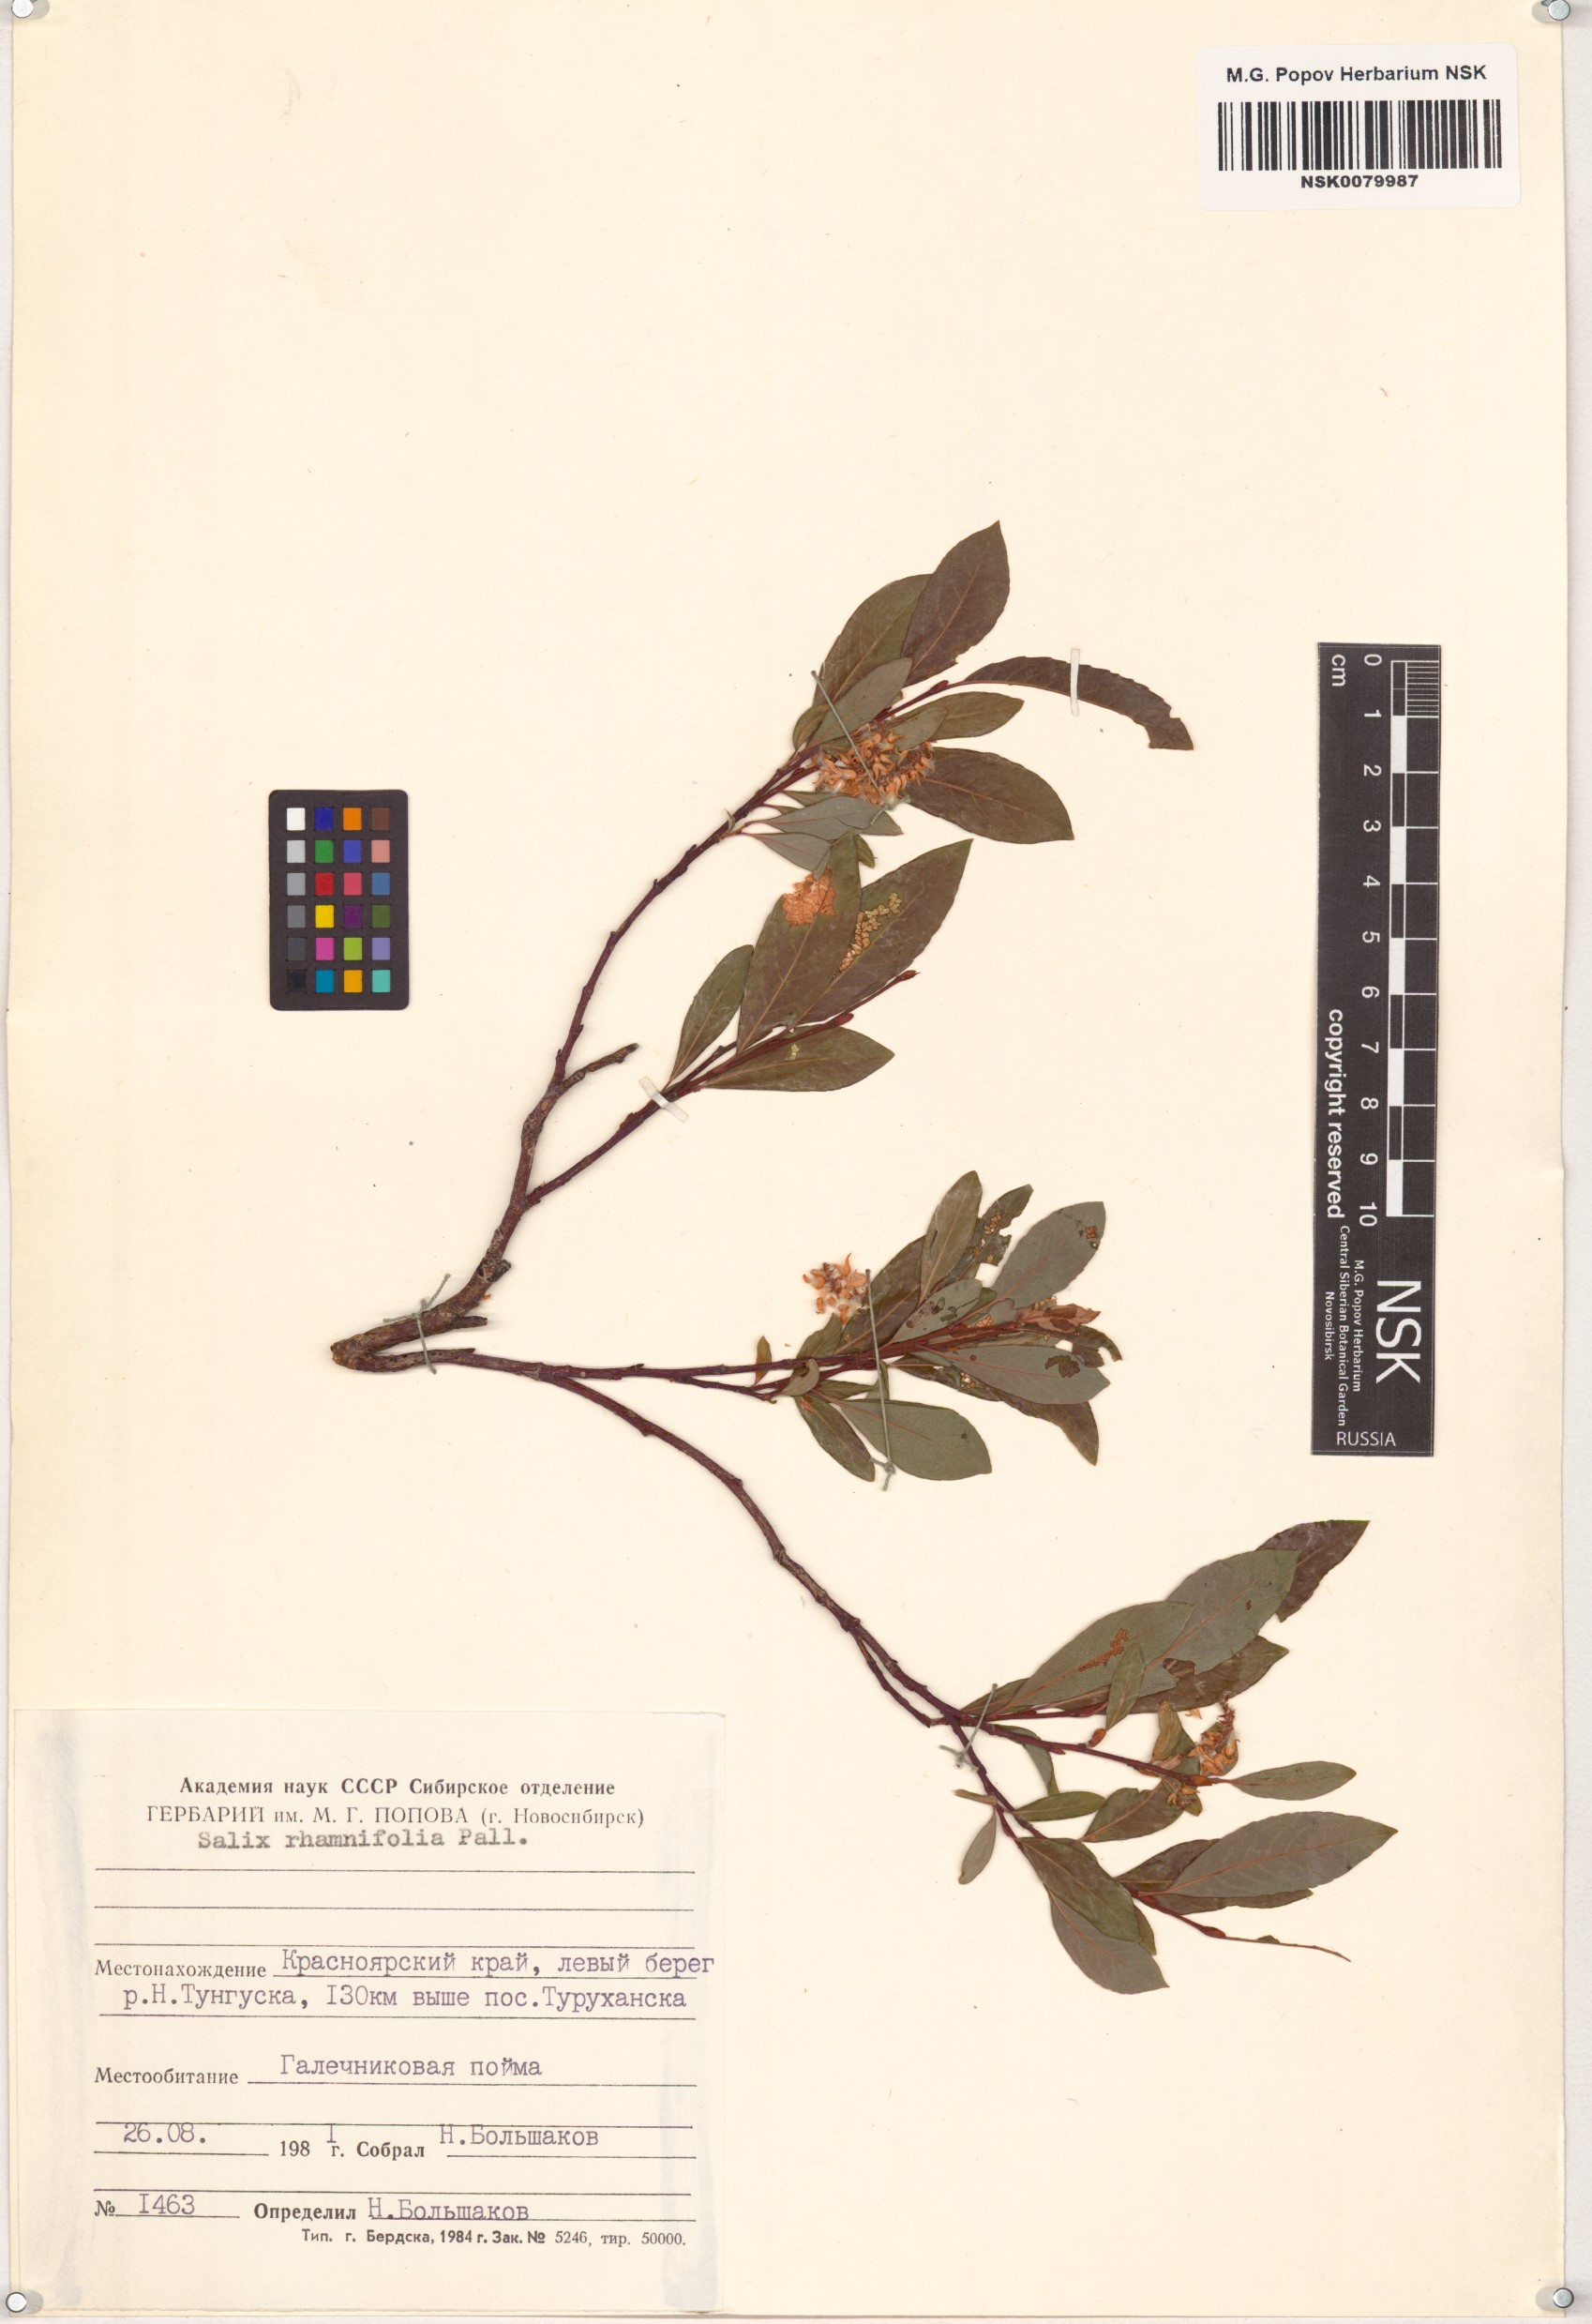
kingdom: Plantae
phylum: Tracheophyta
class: Magnoliopsida
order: Malpighiales
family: Salicaceae
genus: Salix
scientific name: Salix rhamnifolia
